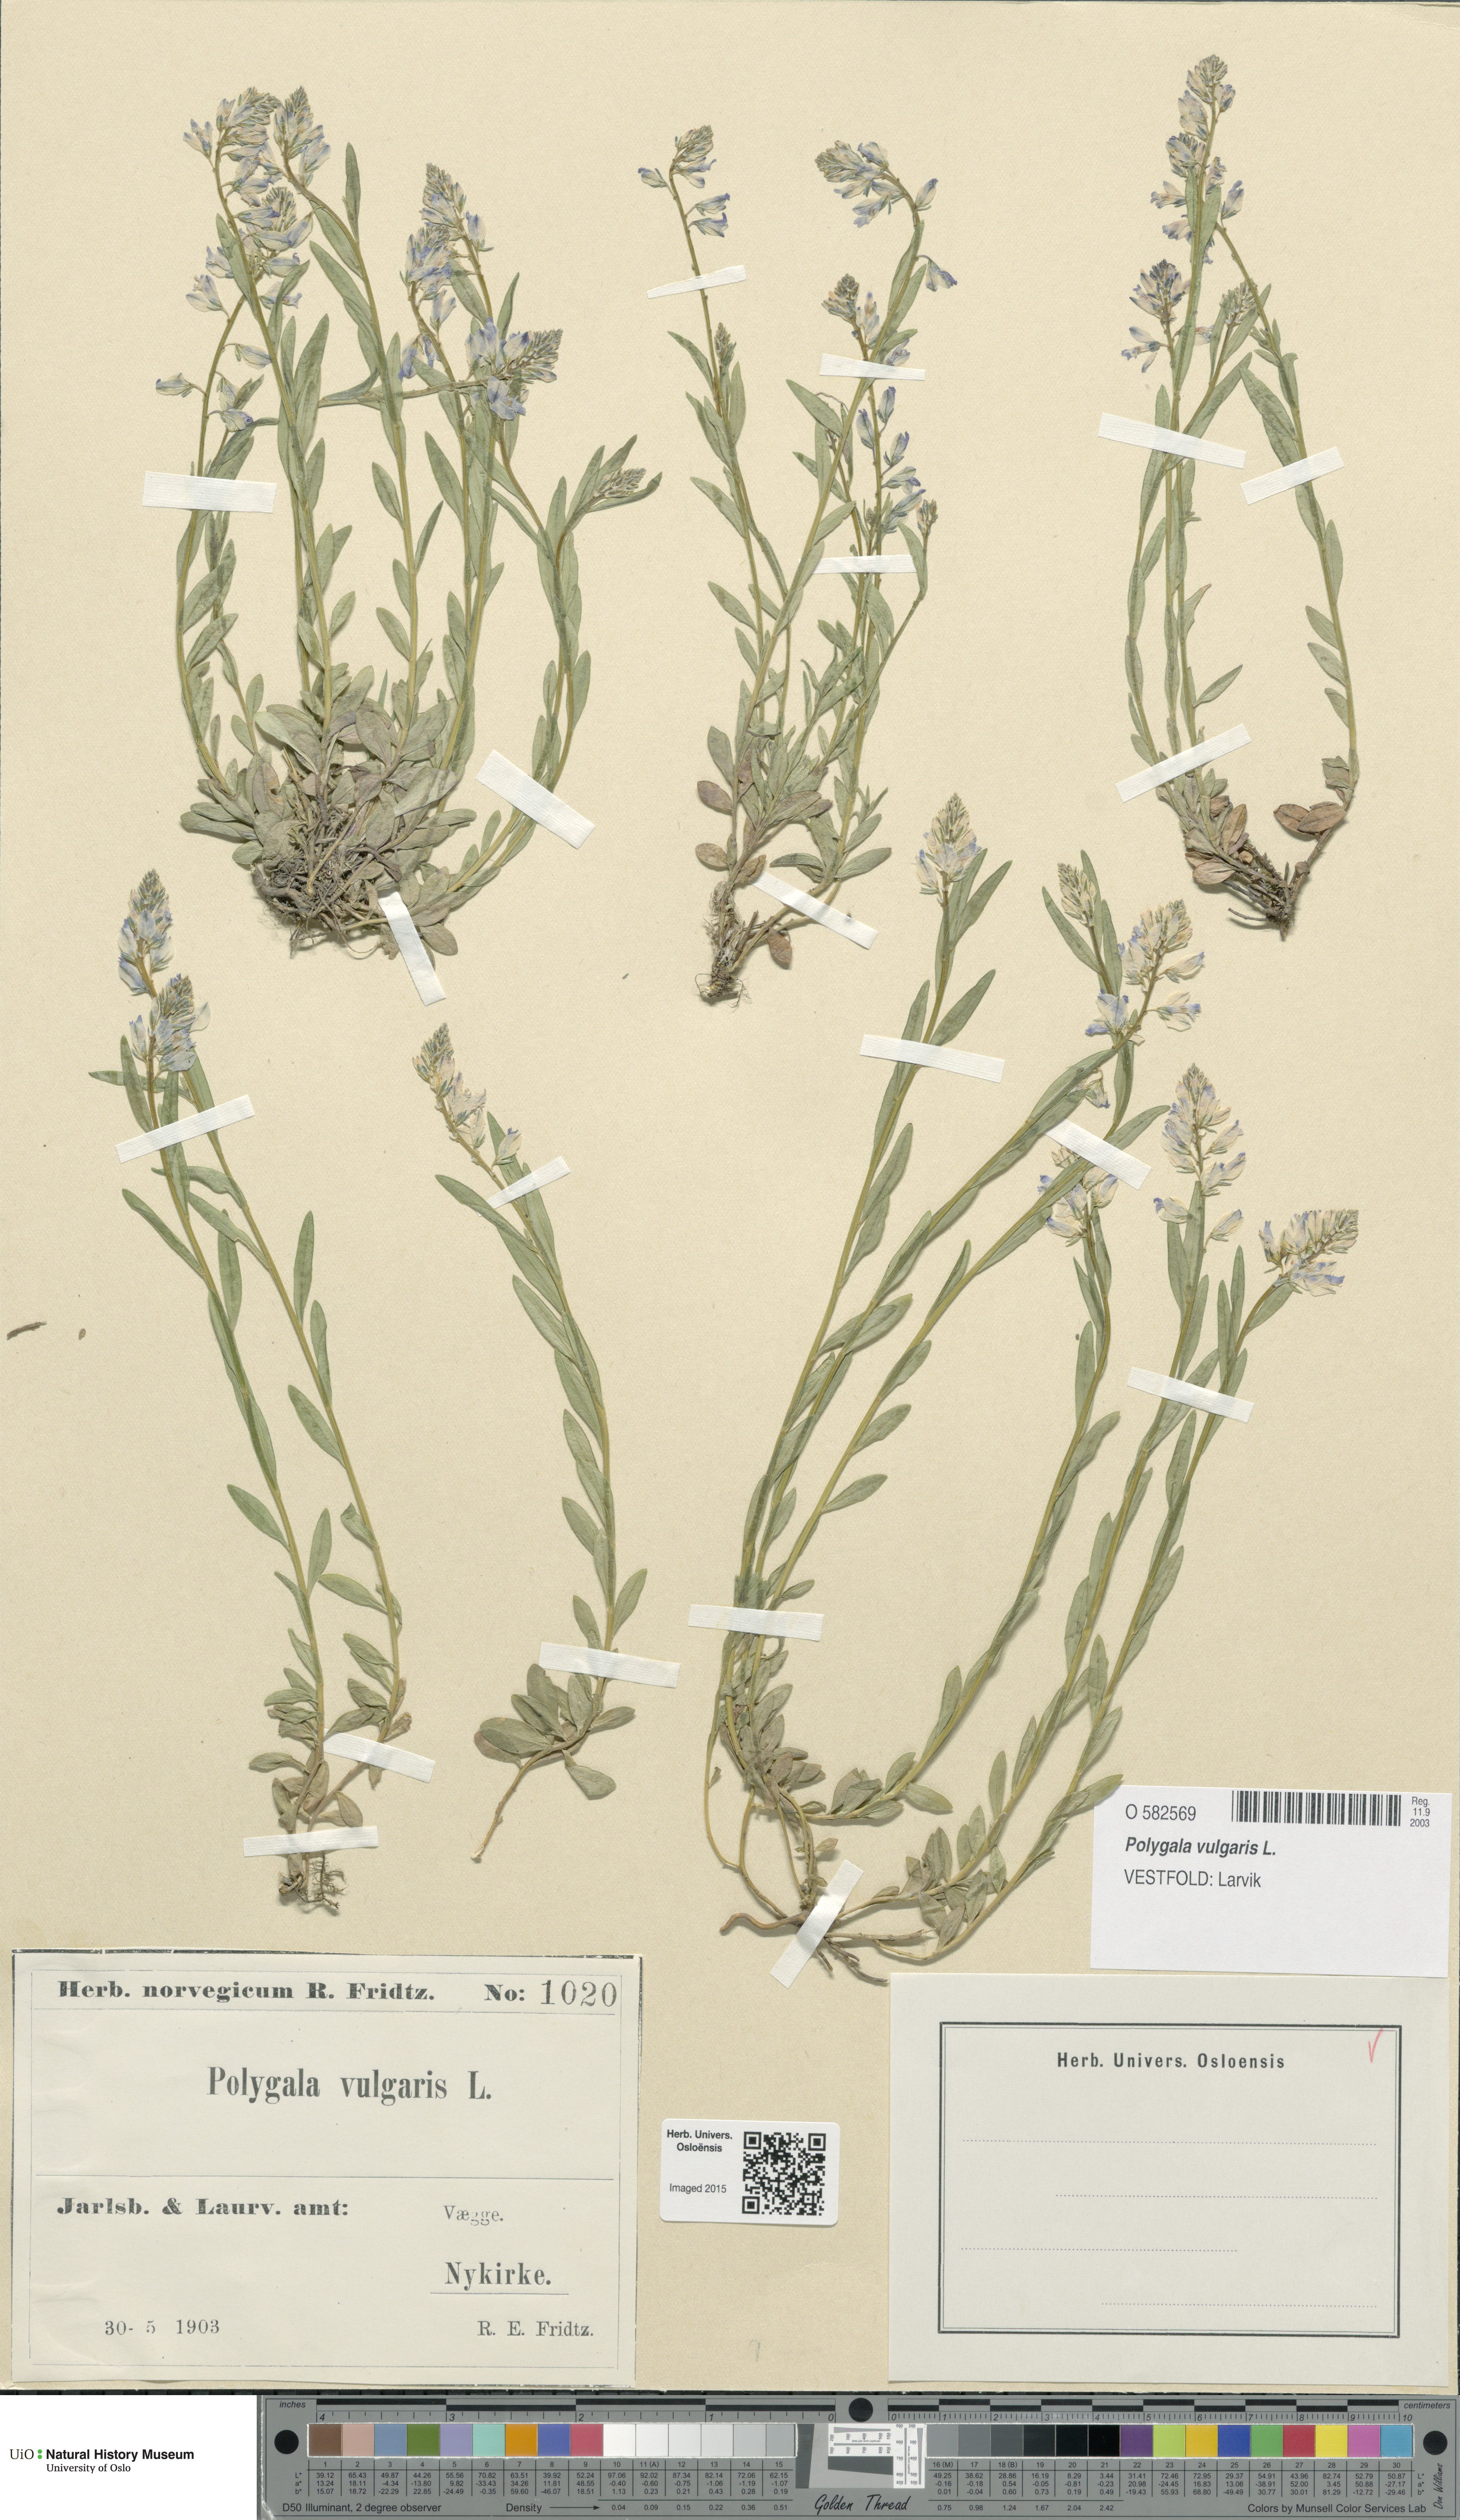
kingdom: Plantae
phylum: Tracheophyta
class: Magnoliopsida
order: Fabales
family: Polygalaceae
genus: Polygala
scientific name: Polygala vulgaris
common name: Common milkwort
